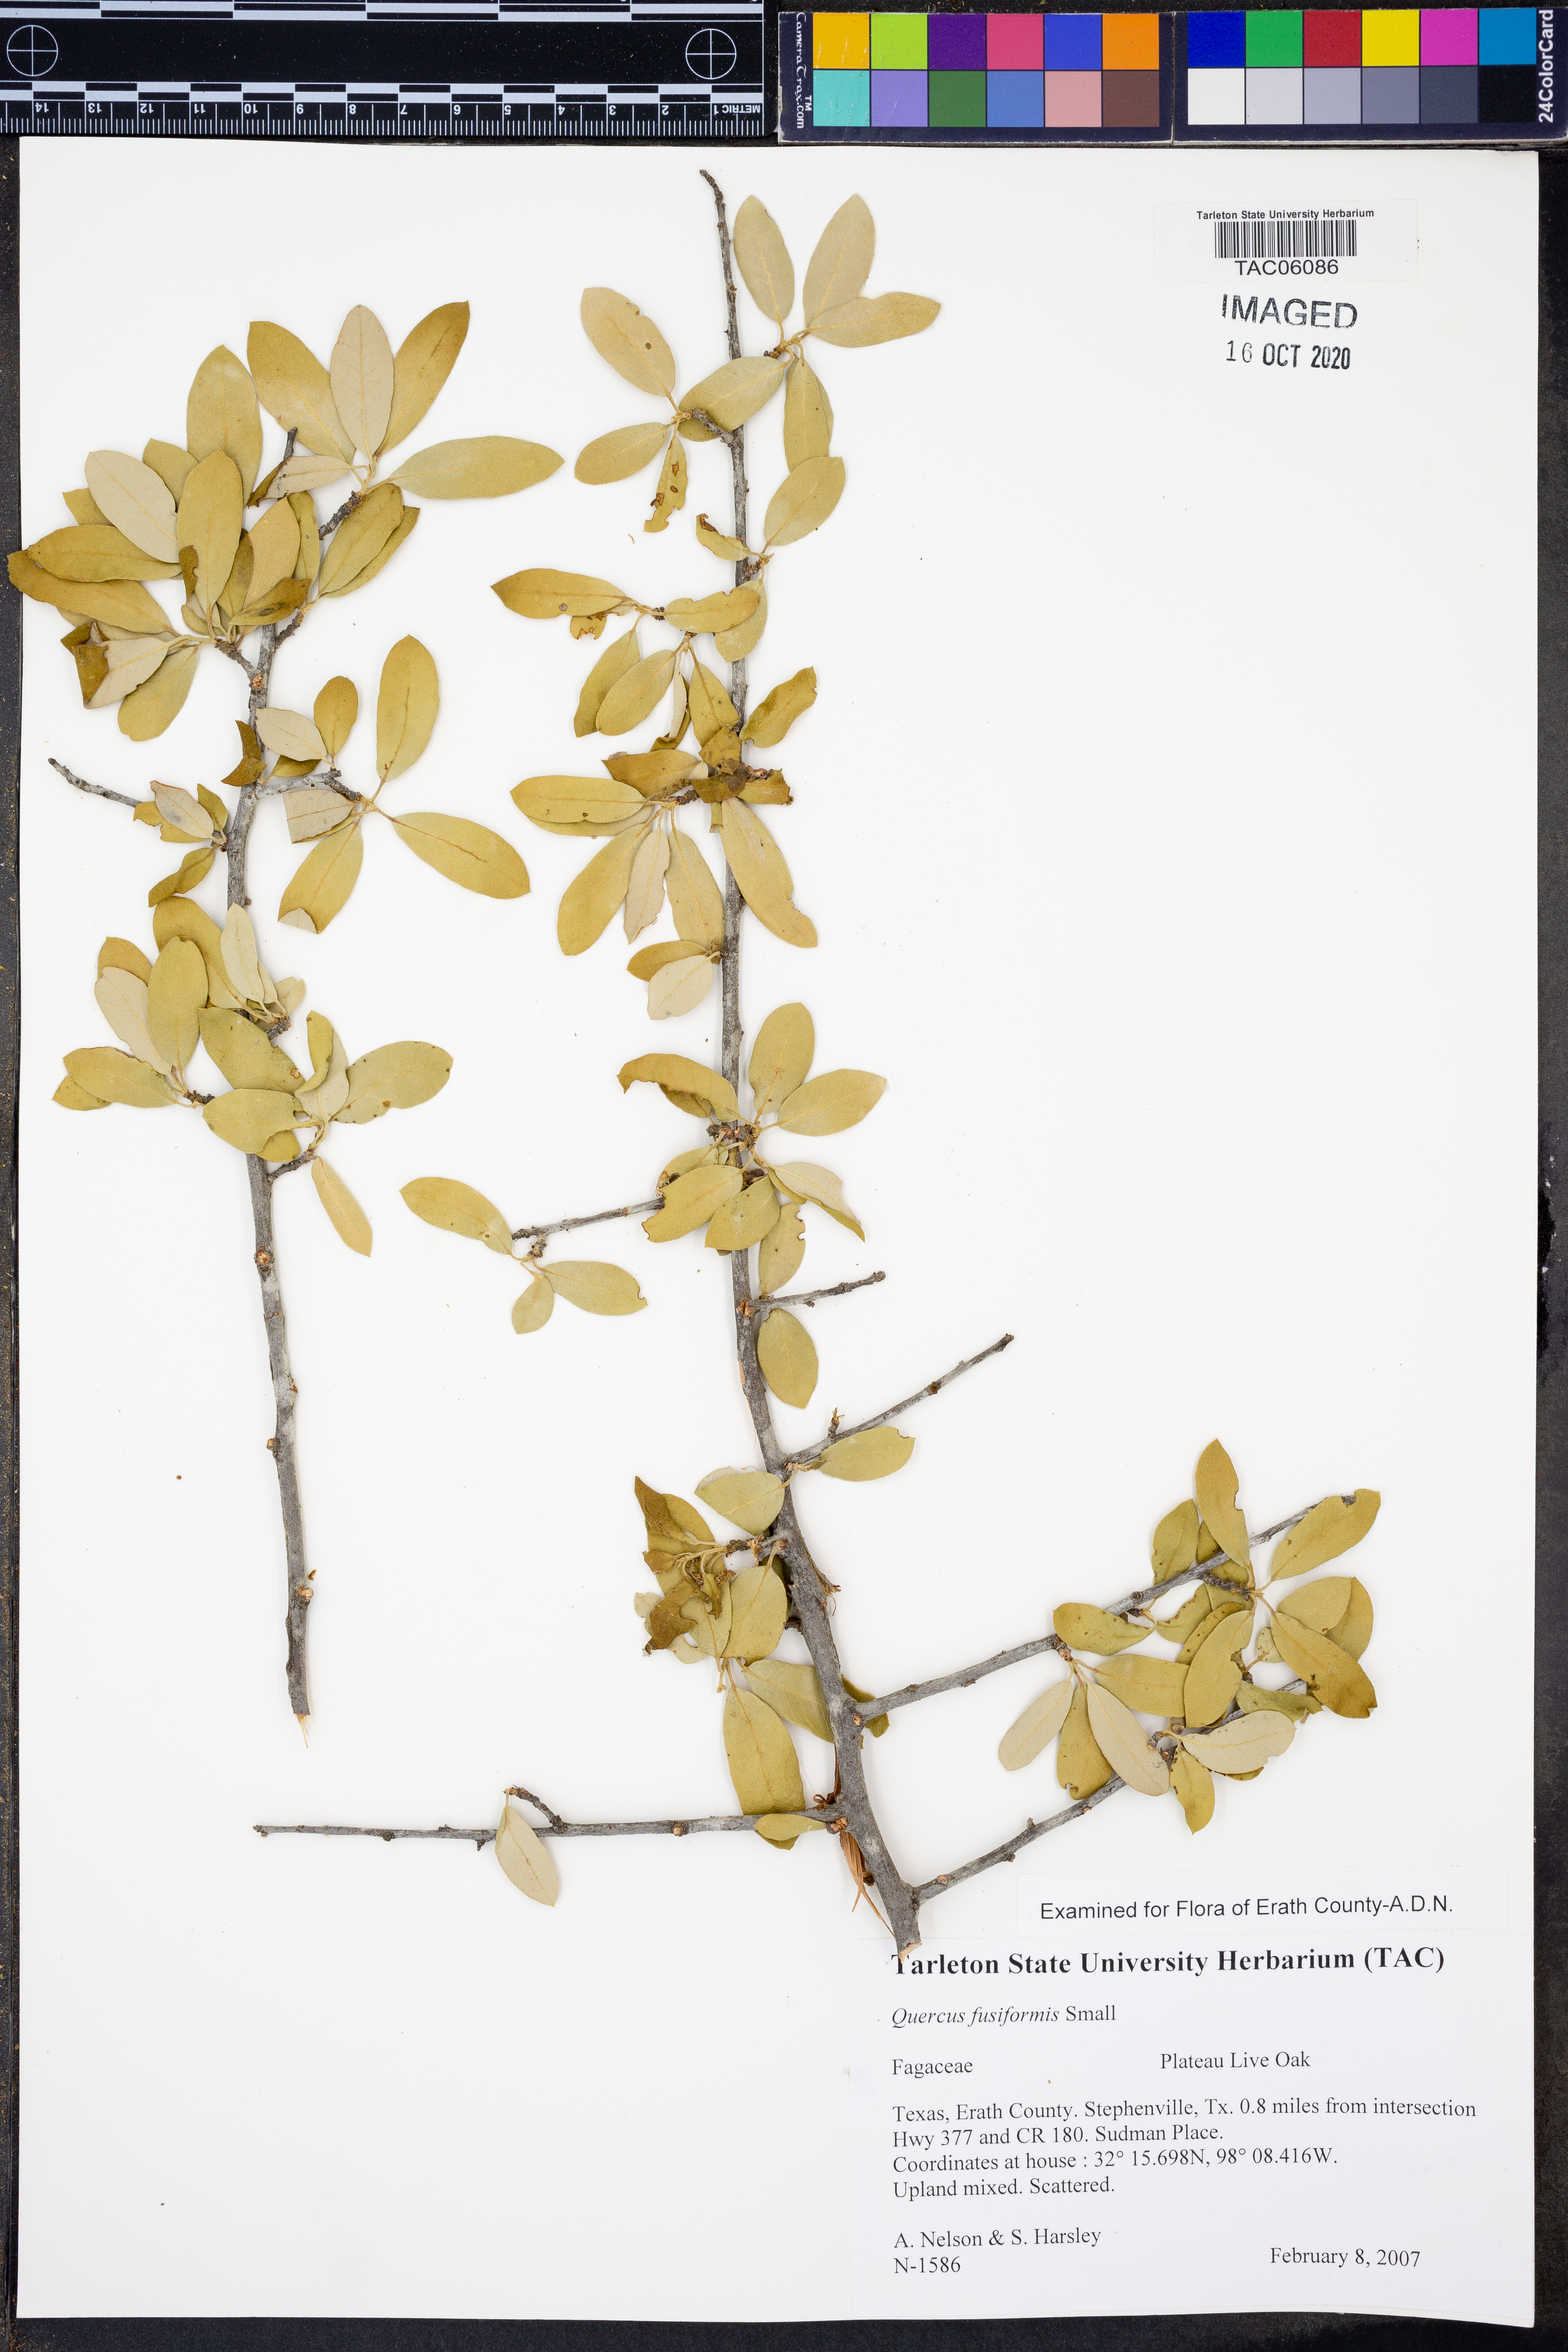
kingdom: Plantae
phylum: Tracheophyta
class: Magnoliopsida
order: Fagales
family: Fagaceae
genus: Quercus
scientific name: Quercus fusiformis
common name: Texas live oak
